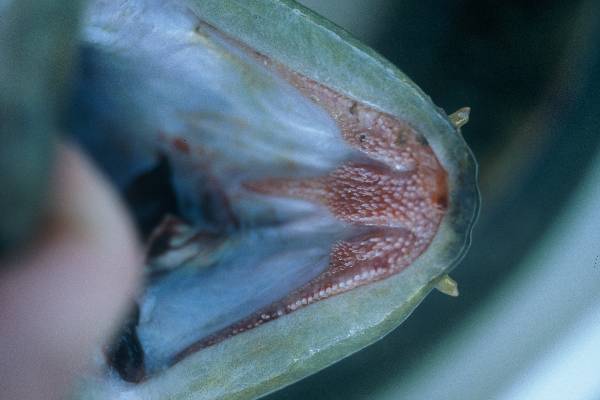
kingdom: Animalia
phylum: Chordata
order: Anguilliformes
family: Anguillidae
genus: Anguilla
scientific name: Anguilla labiata
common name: African mottled eel
